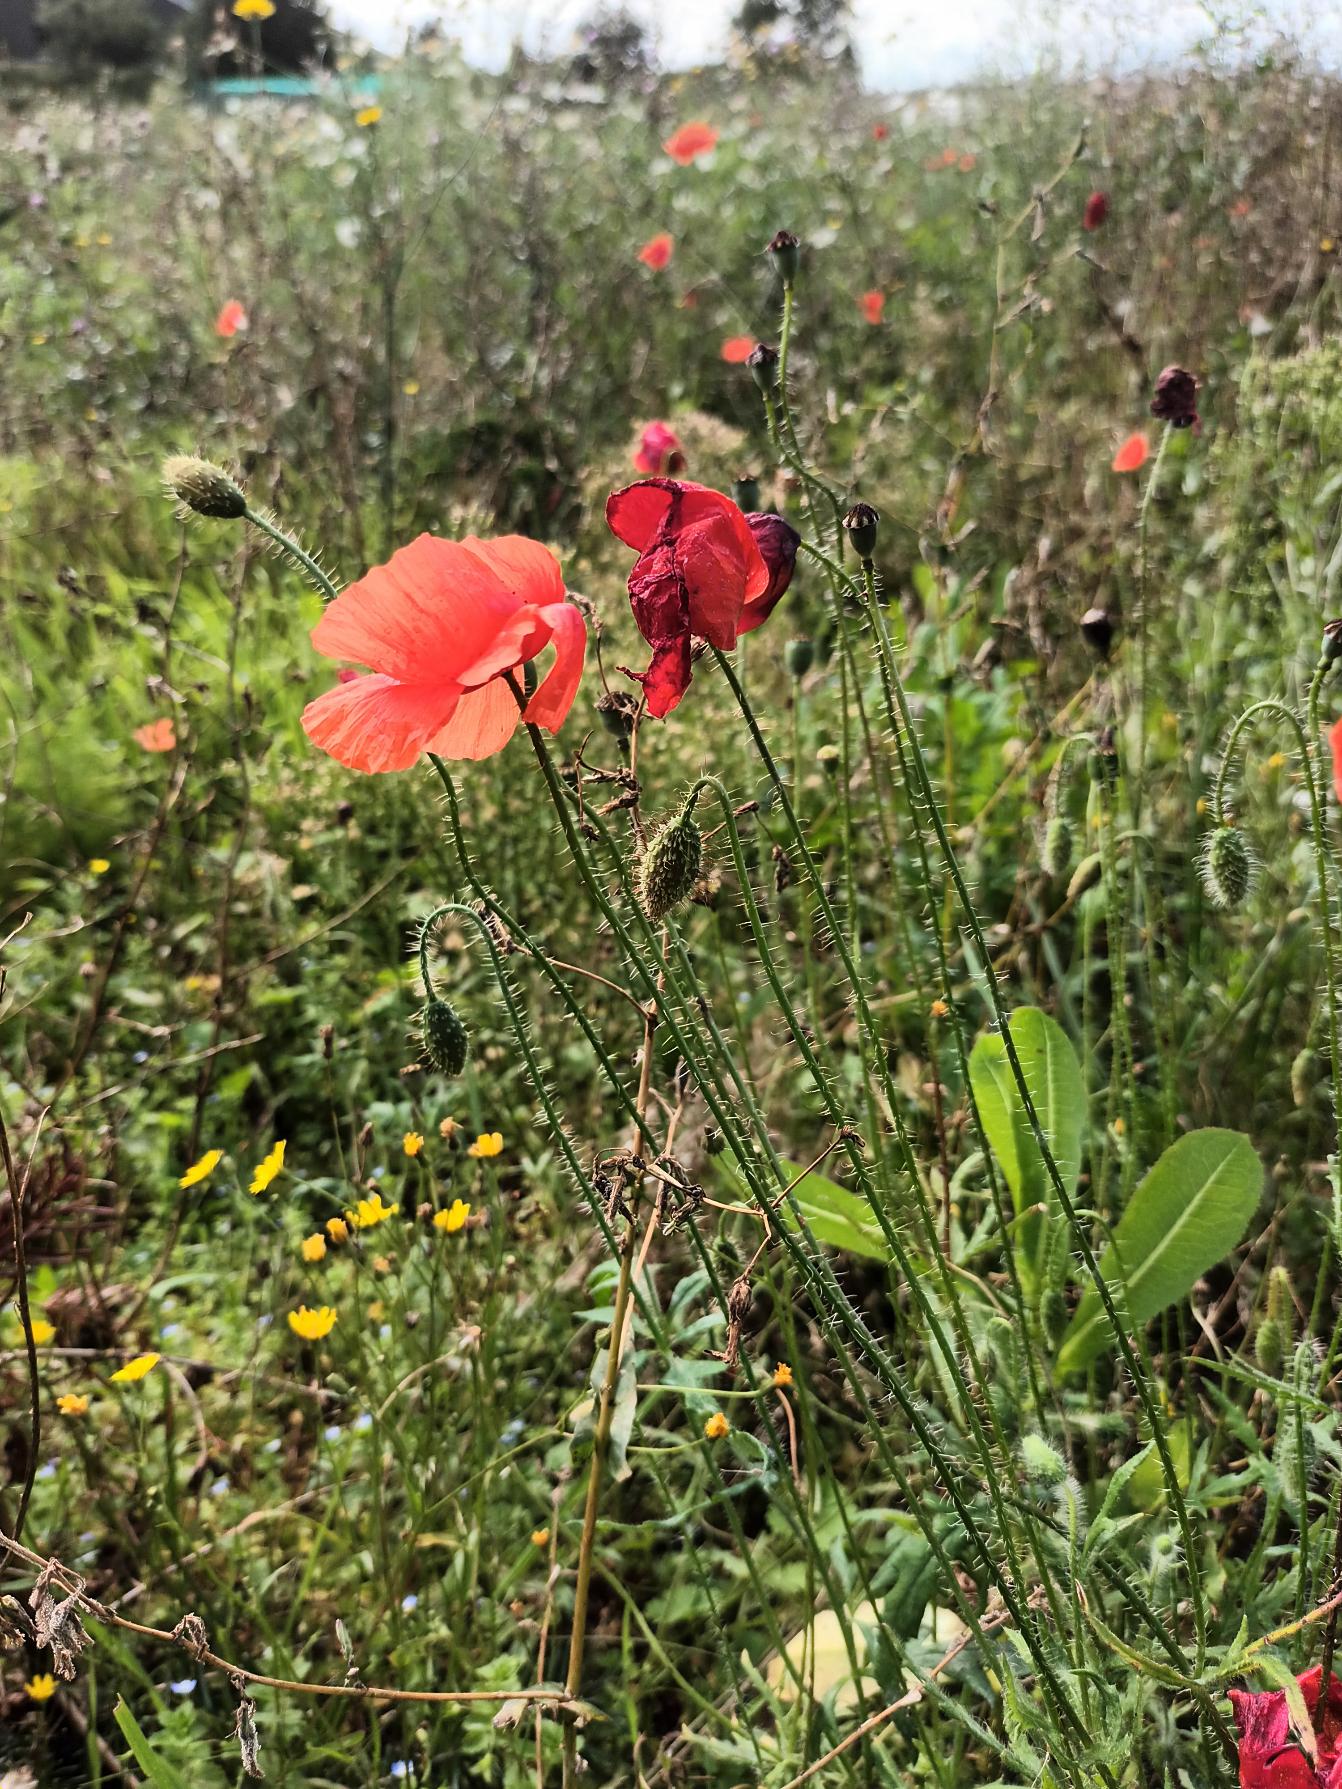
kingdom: Plantae
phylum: Tracheophyta
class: Magnoliopsida
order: Ranunculales
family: Papaveraceae
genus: Papaver
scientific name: Papaver rhoeas
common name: Korn-valmue
